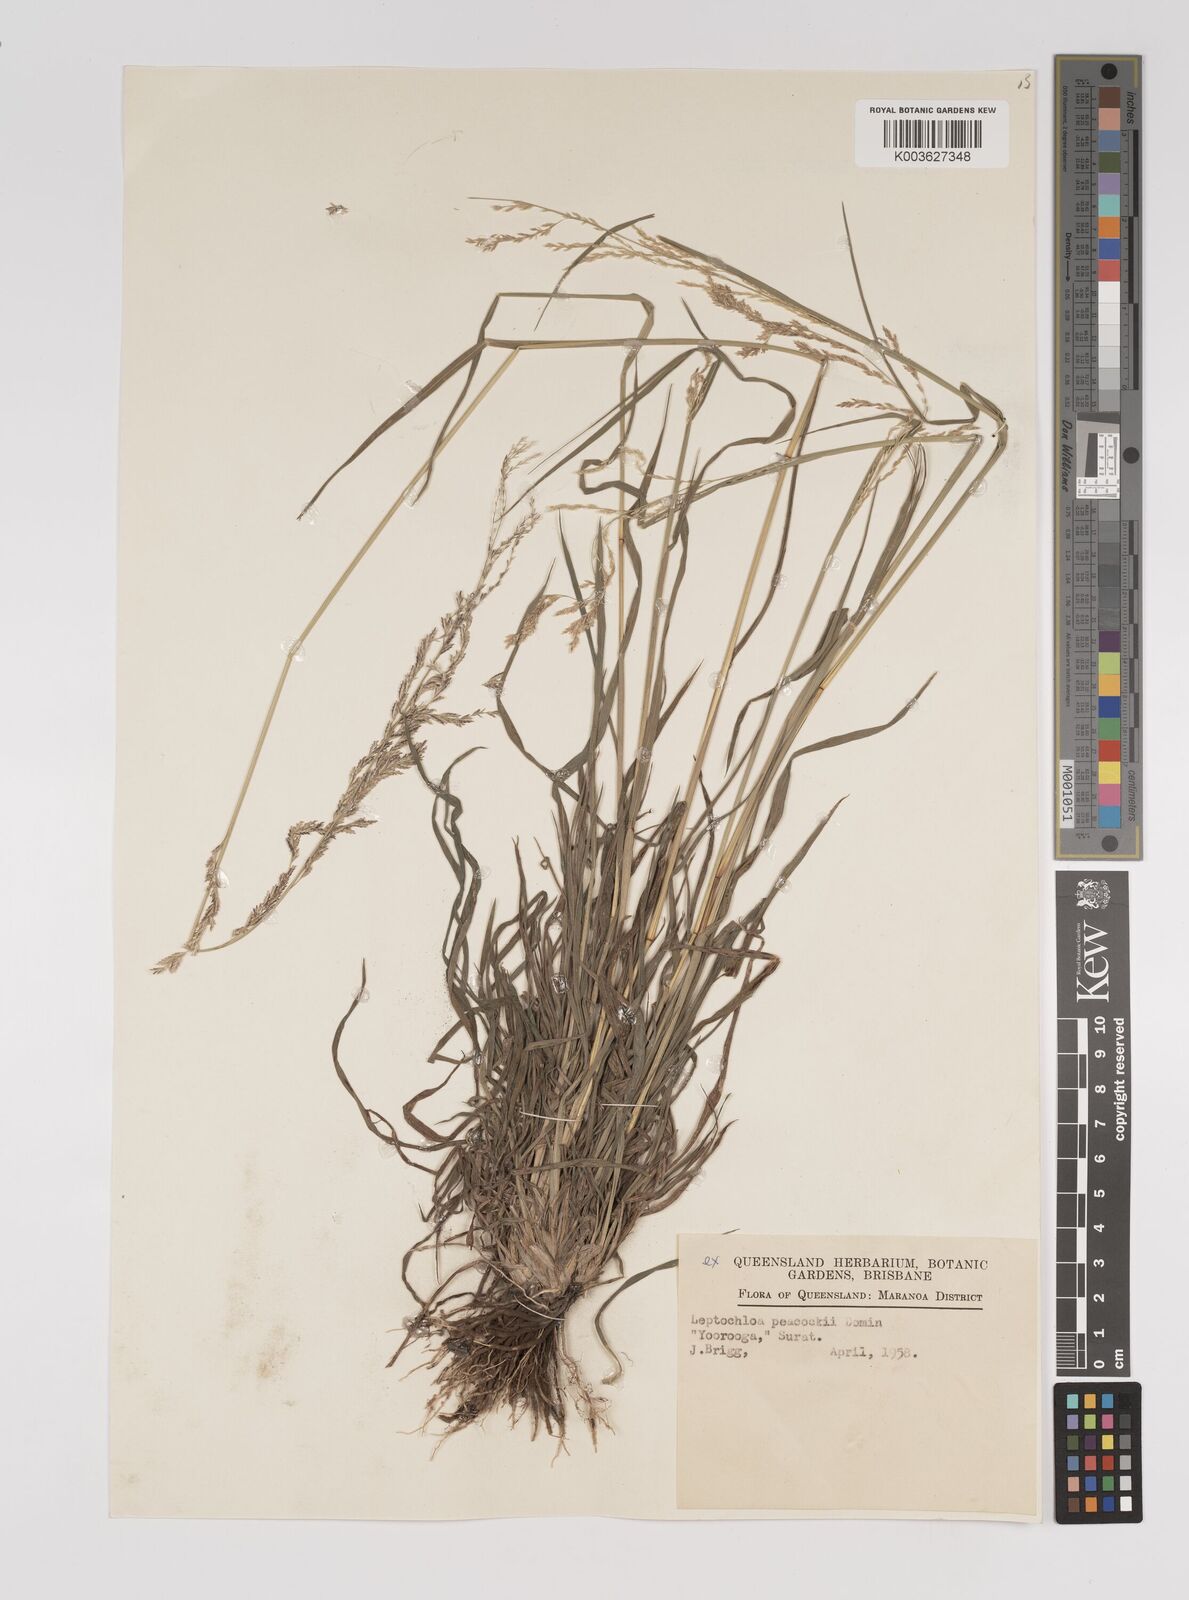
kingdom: Plantae
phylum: Tracheophyta
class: Liliopsida
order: Poales
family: Poaceae
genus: Leptochloa
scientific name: Leptochloa decipiens
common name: Australian sprangletop
